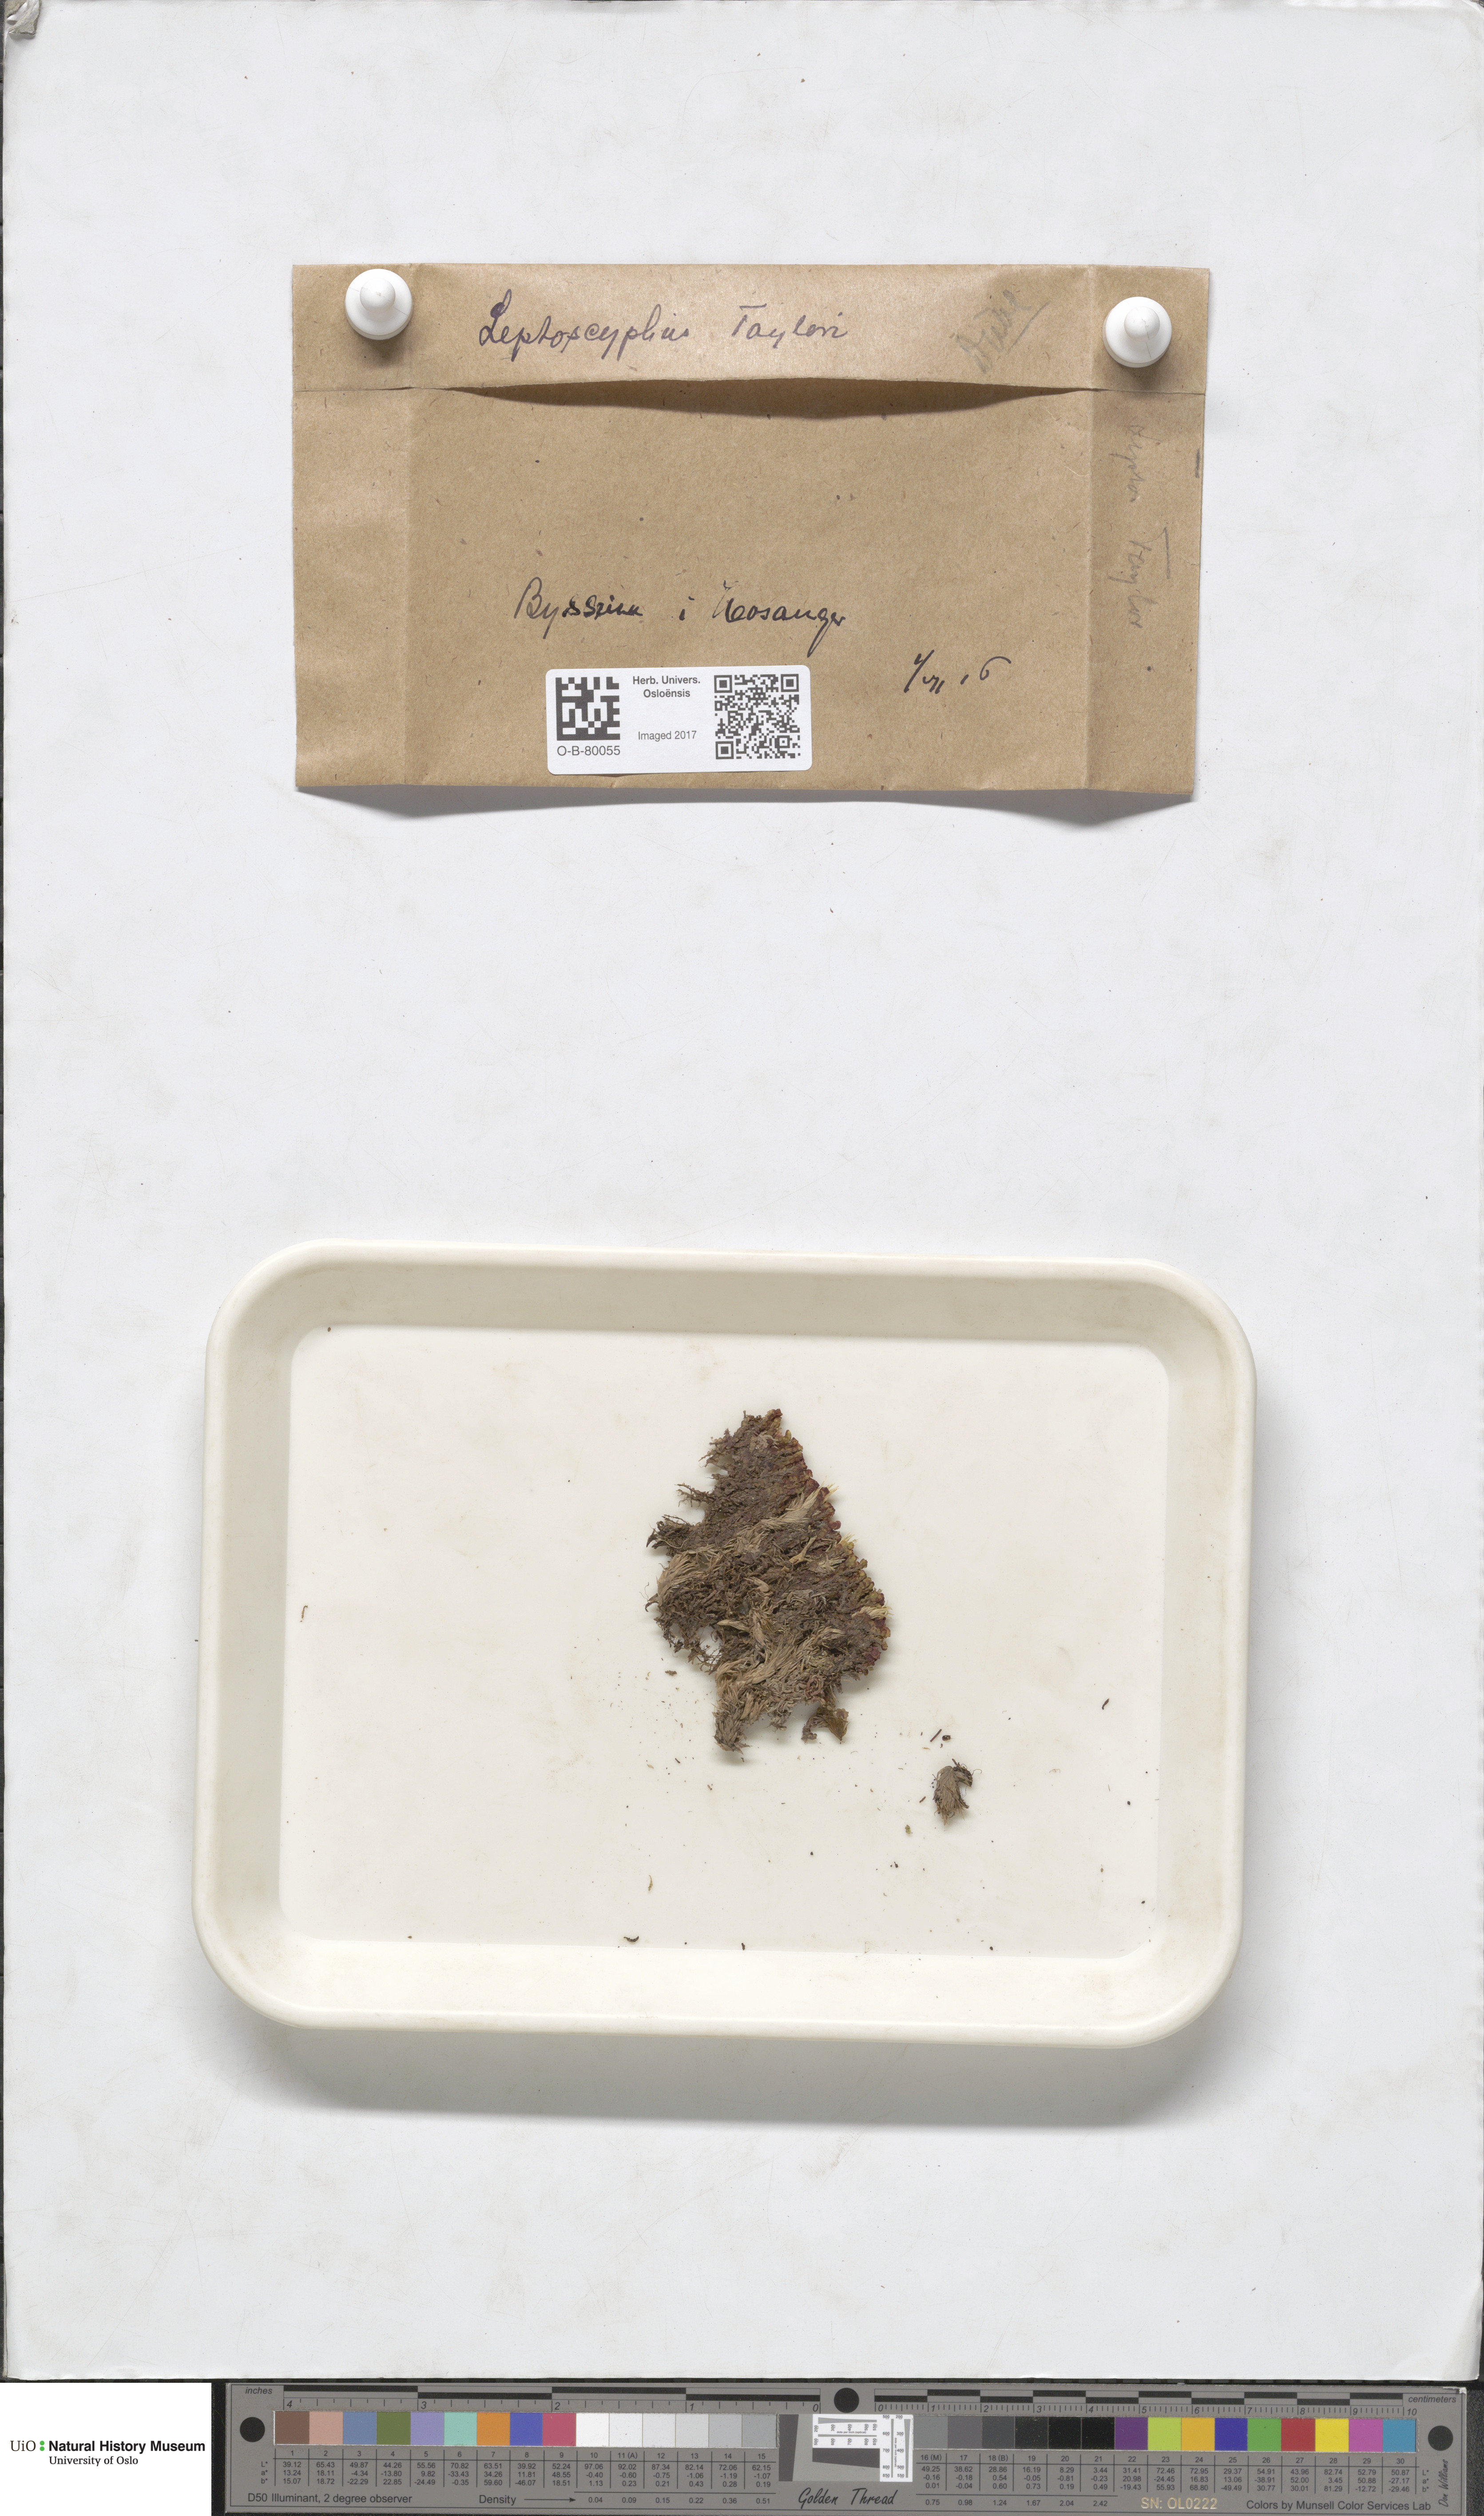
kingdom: Plantae
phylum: Marchantiophyta
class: Jungermanniopsida
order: Jungermanniales
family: Myliaceae
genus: Mylia
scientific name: Mylia taylorii
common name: Taylor s flapwort
